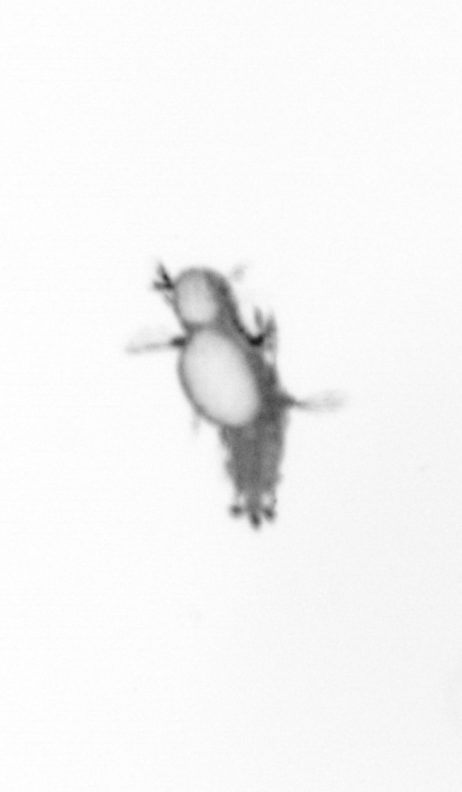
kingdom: Animalia
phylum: Annelida
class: Polychaeta
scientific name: Polychaeta
